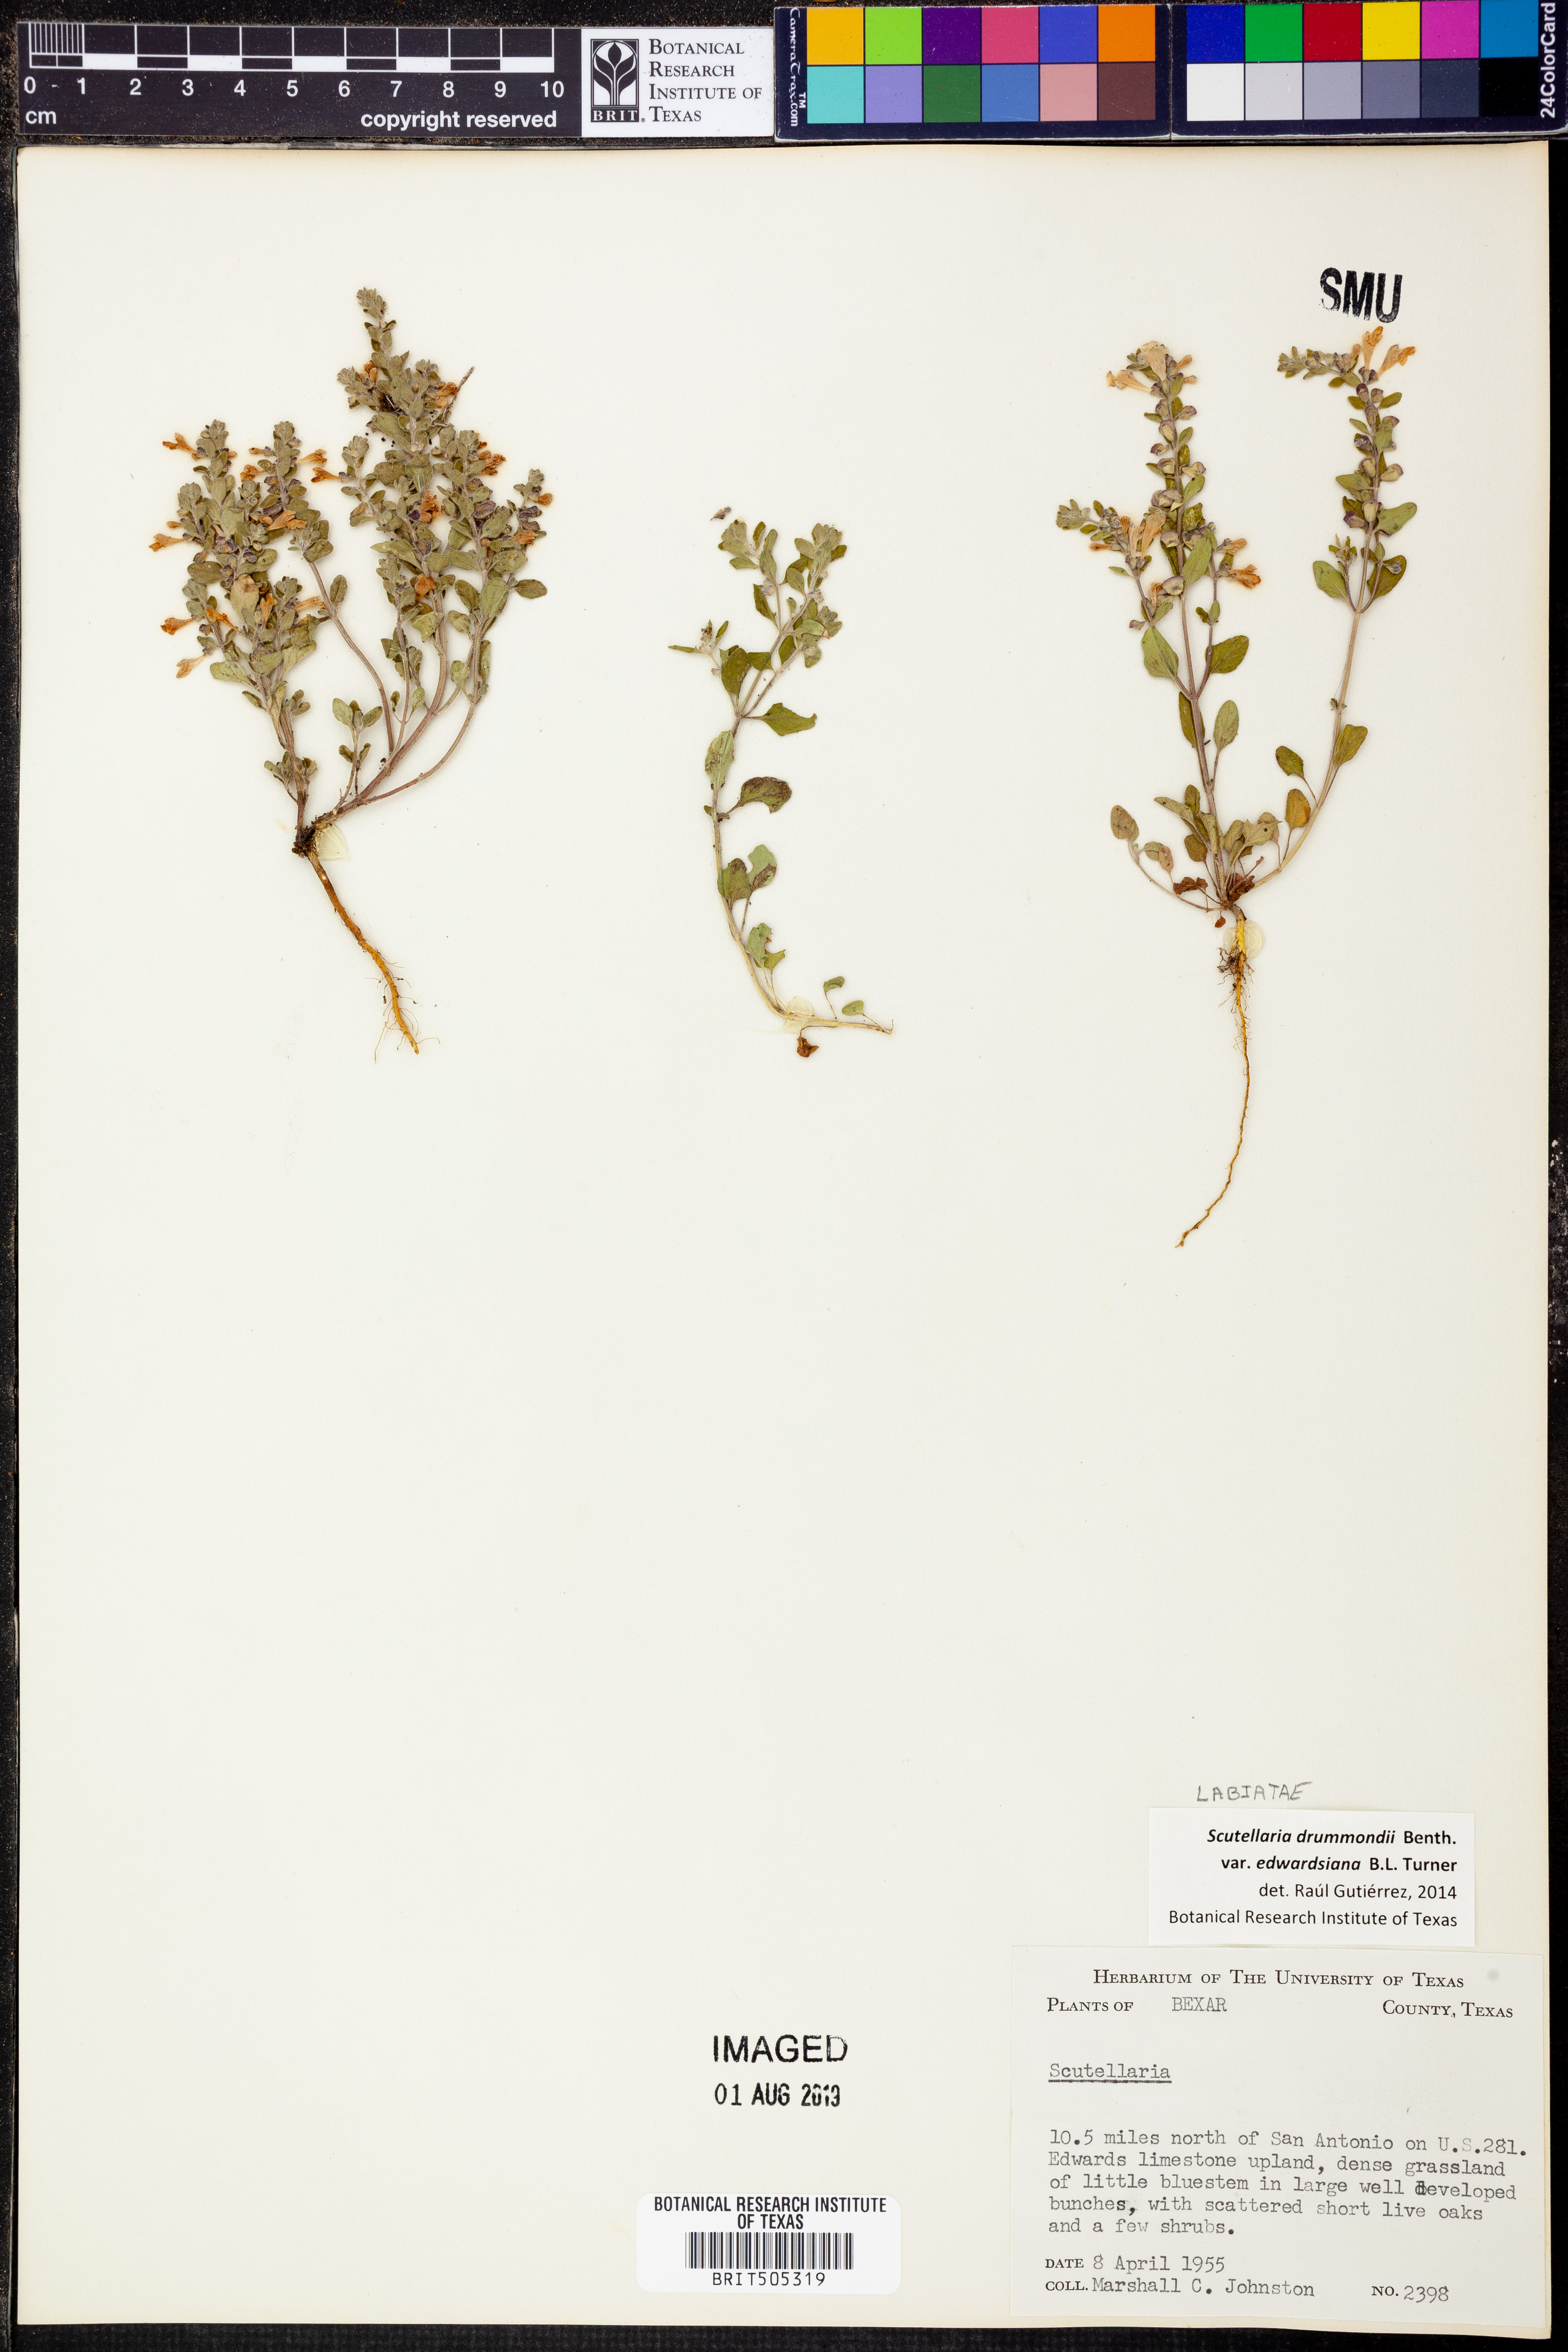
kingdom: Plantae
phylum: Tracheophyta
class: Magnoliopsida
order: Lamiales
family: Lamiaceae
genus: Scutellaria
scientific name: Scutellaria drummondii
